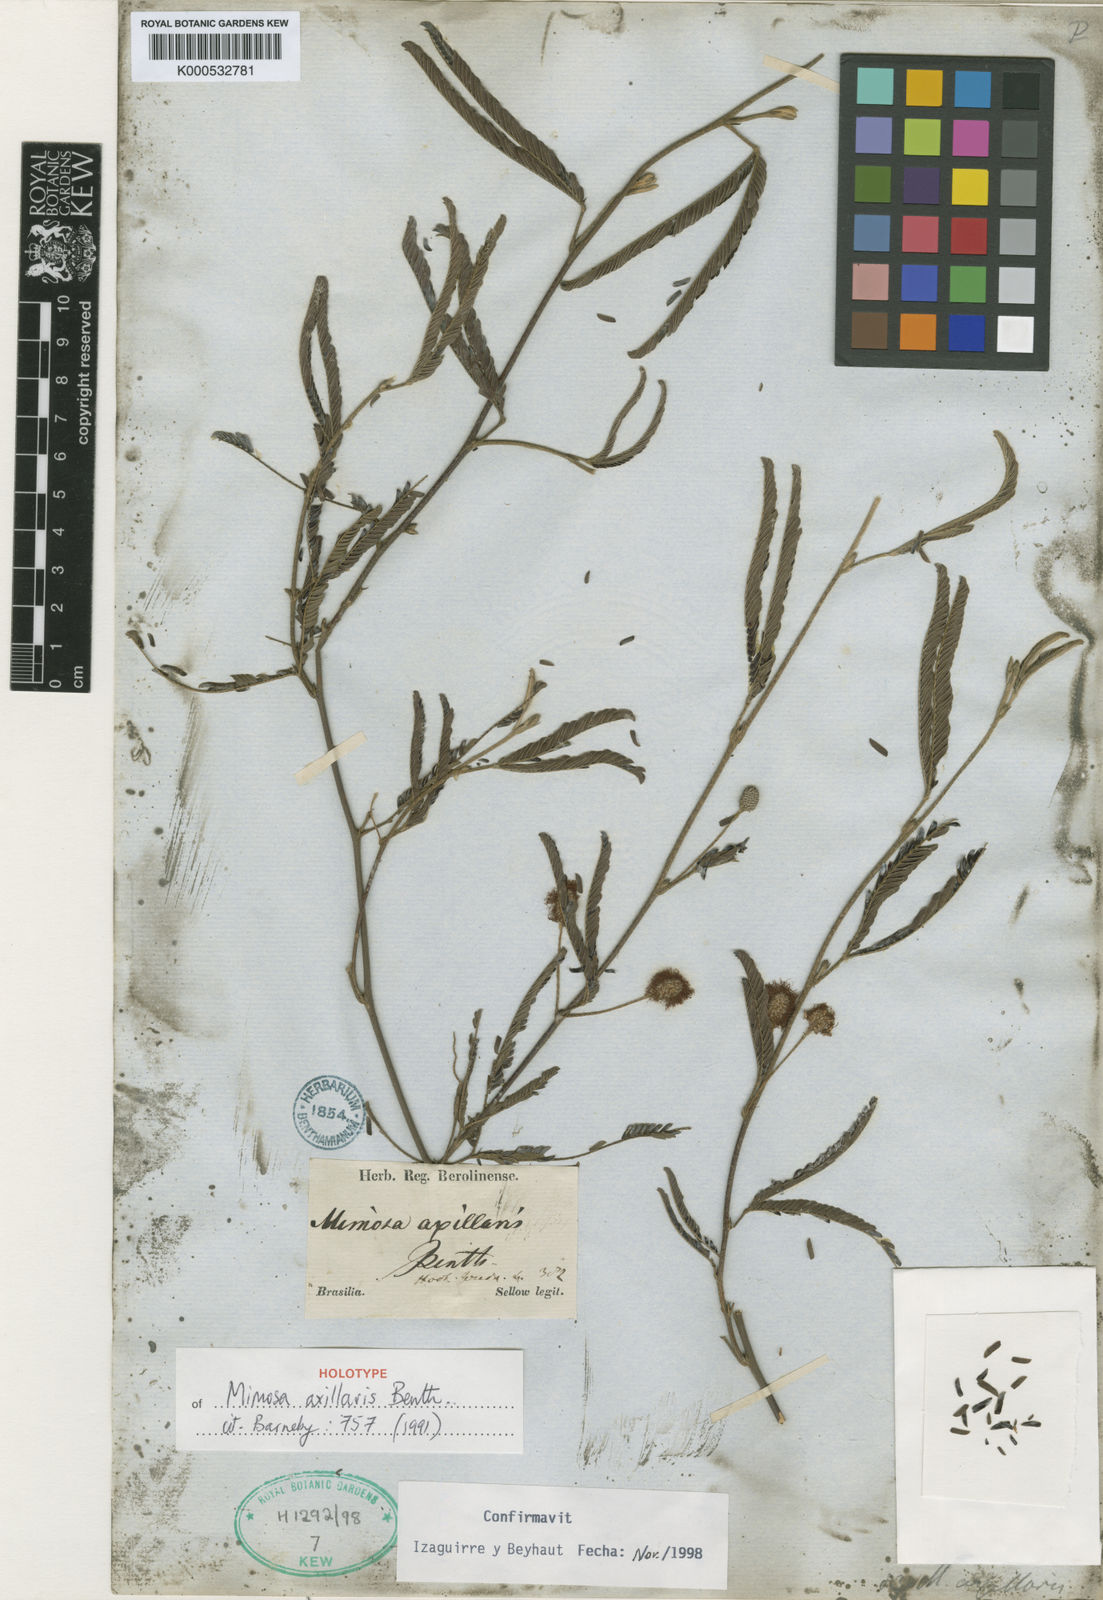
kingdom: Plantae
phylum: Tracheophyta
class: Magnoliopsida
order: Fabales
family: Fabaceae
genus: Mimosa
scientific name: Mimosa axillaris
